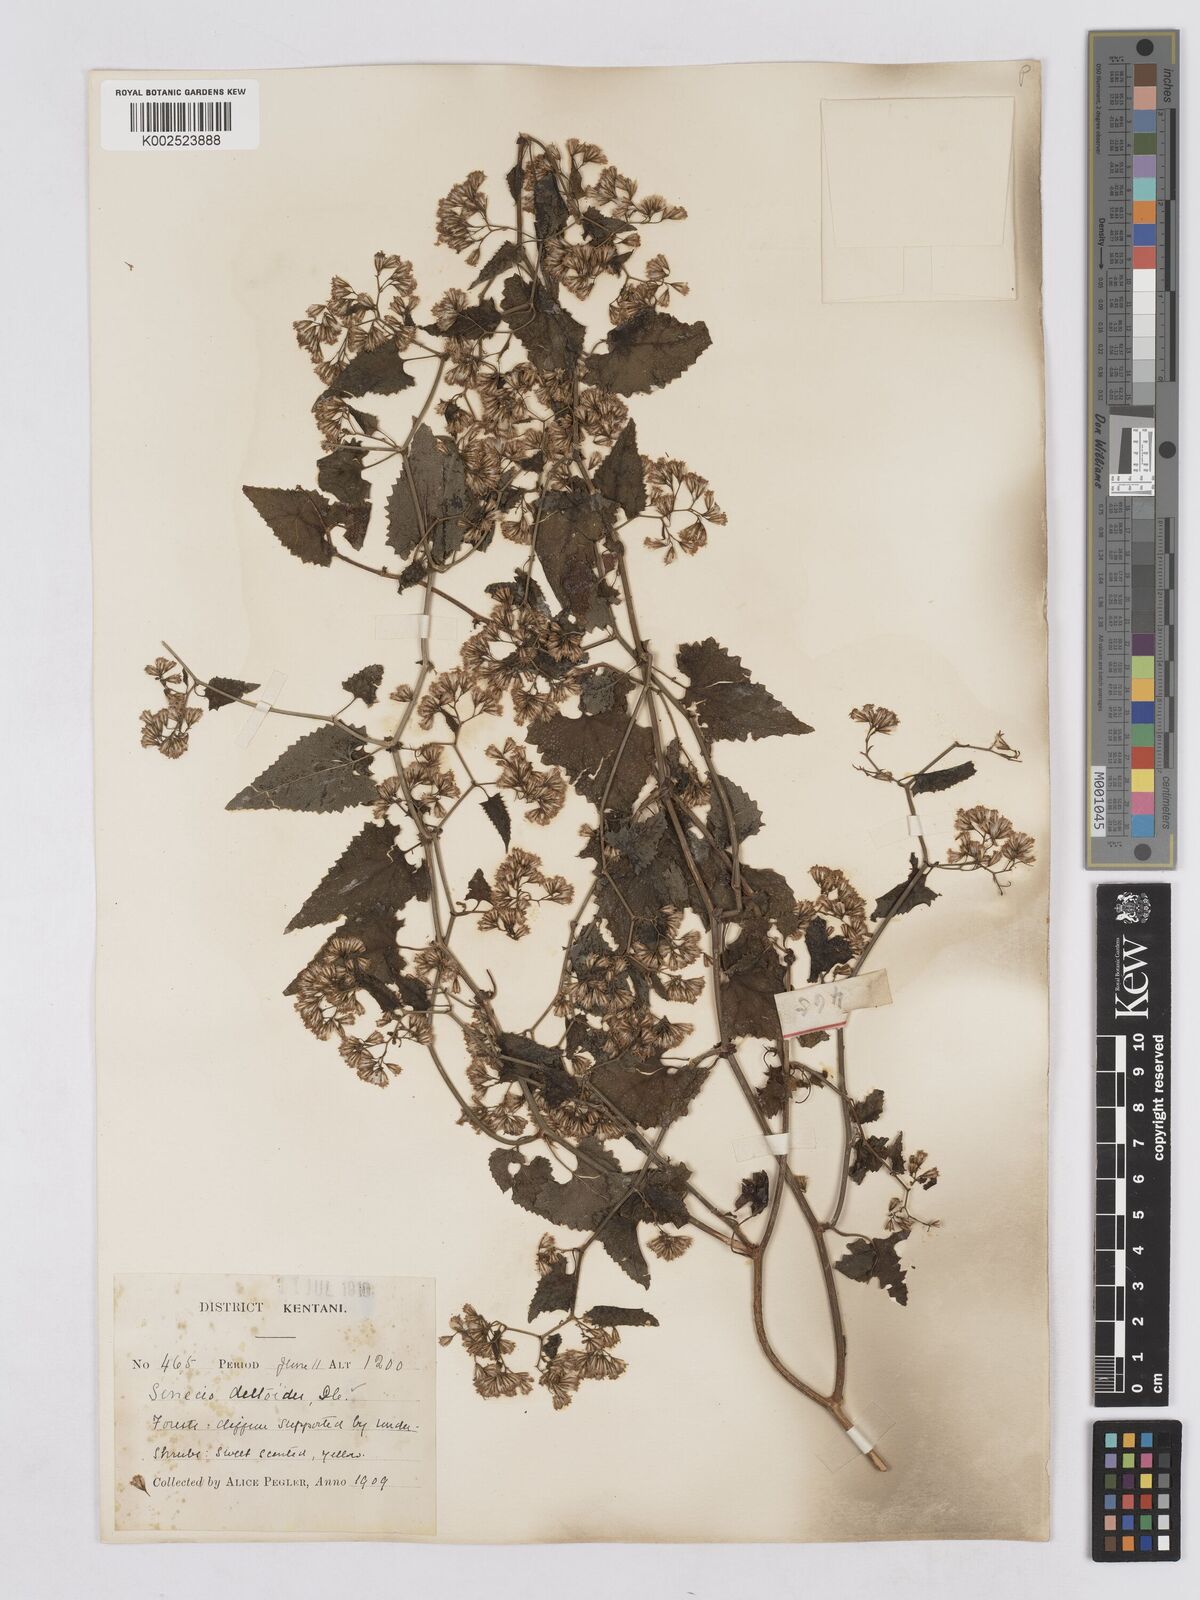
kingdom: Plantae
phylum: Tracheophyta
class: Magnoliopsida
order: Asterales
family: Asteraceae
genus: Senecio
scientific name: Senecio deltoideus
